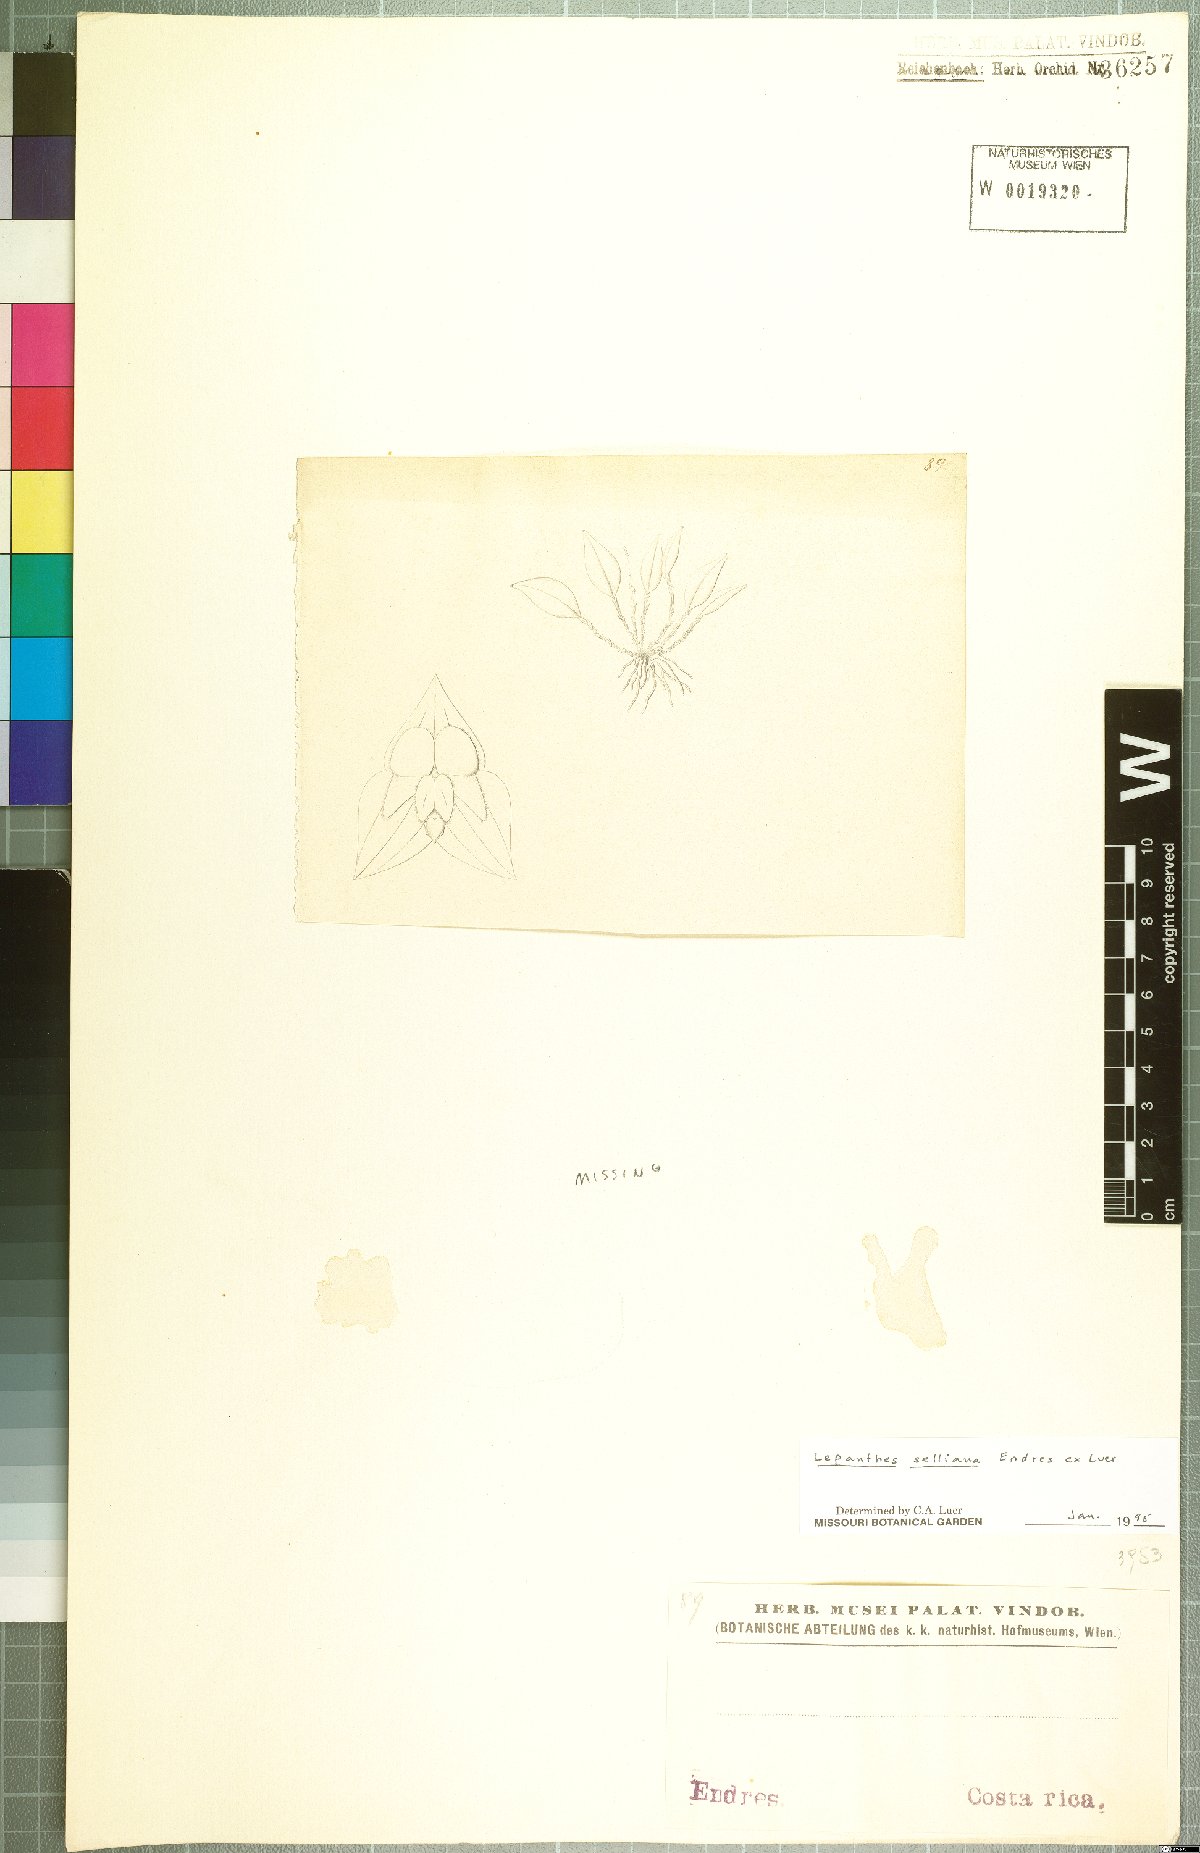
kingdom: Plantae
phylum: Tracheophyta
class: Liliopsida
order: Asparagales
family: Orchidaceae
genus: Lepanthes
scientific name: Lepanthes selliana
